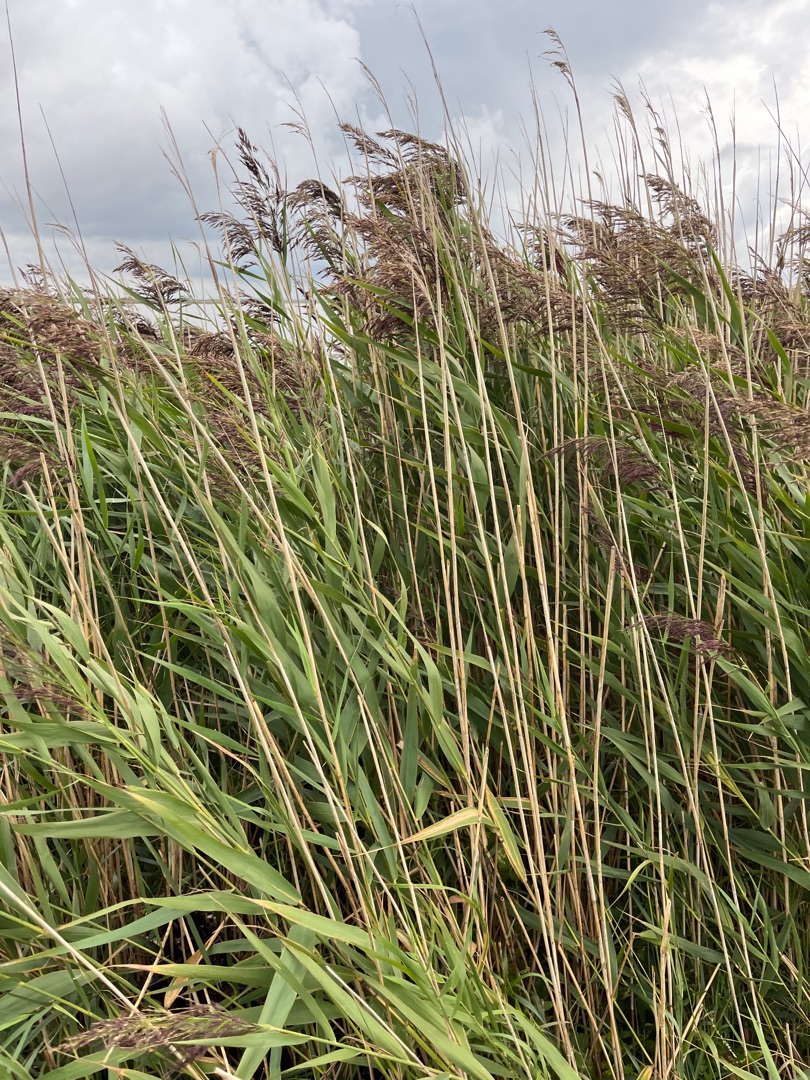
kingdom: Plantae
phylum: Tracheophyta
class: Liliopsida
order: Poales
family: Poaceae
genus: Phragmites
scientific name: Phragmites australis
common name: Tagrør
